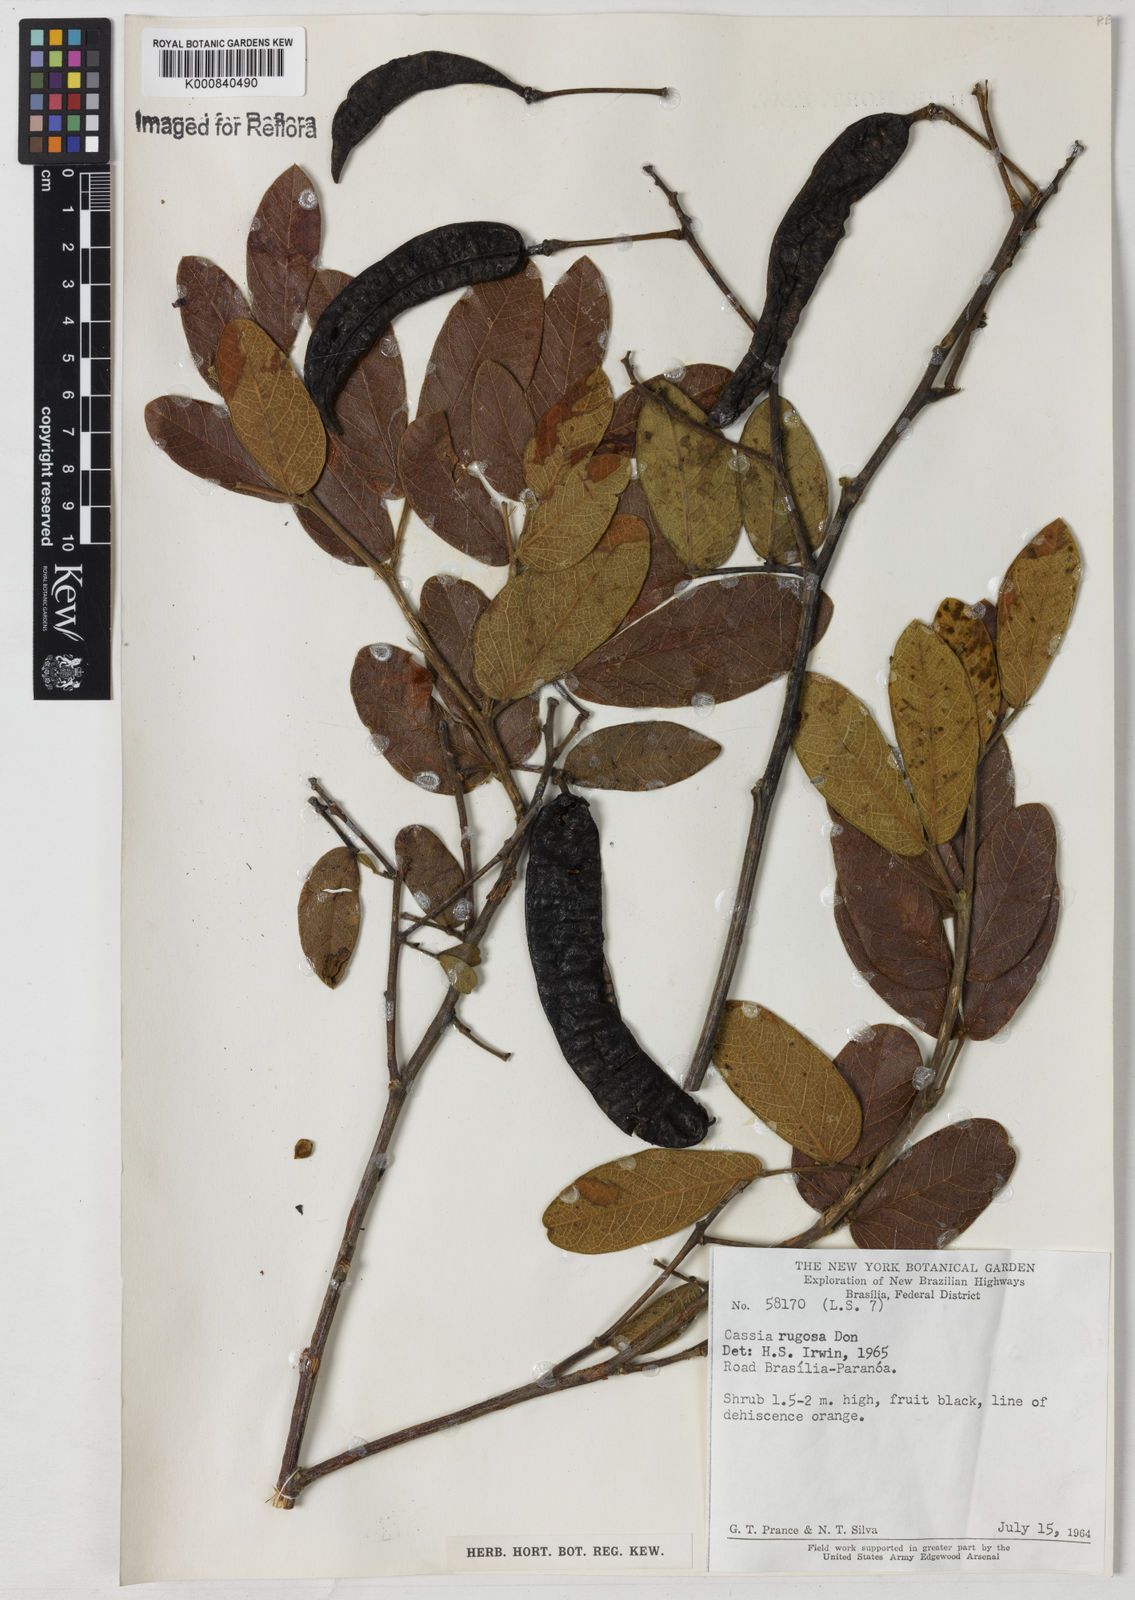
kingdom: Plantae
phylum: Tracheophyta
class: Magnoliopsida
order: Fabales
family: Fabaceae
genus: Senna
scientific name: Senna rugosa
